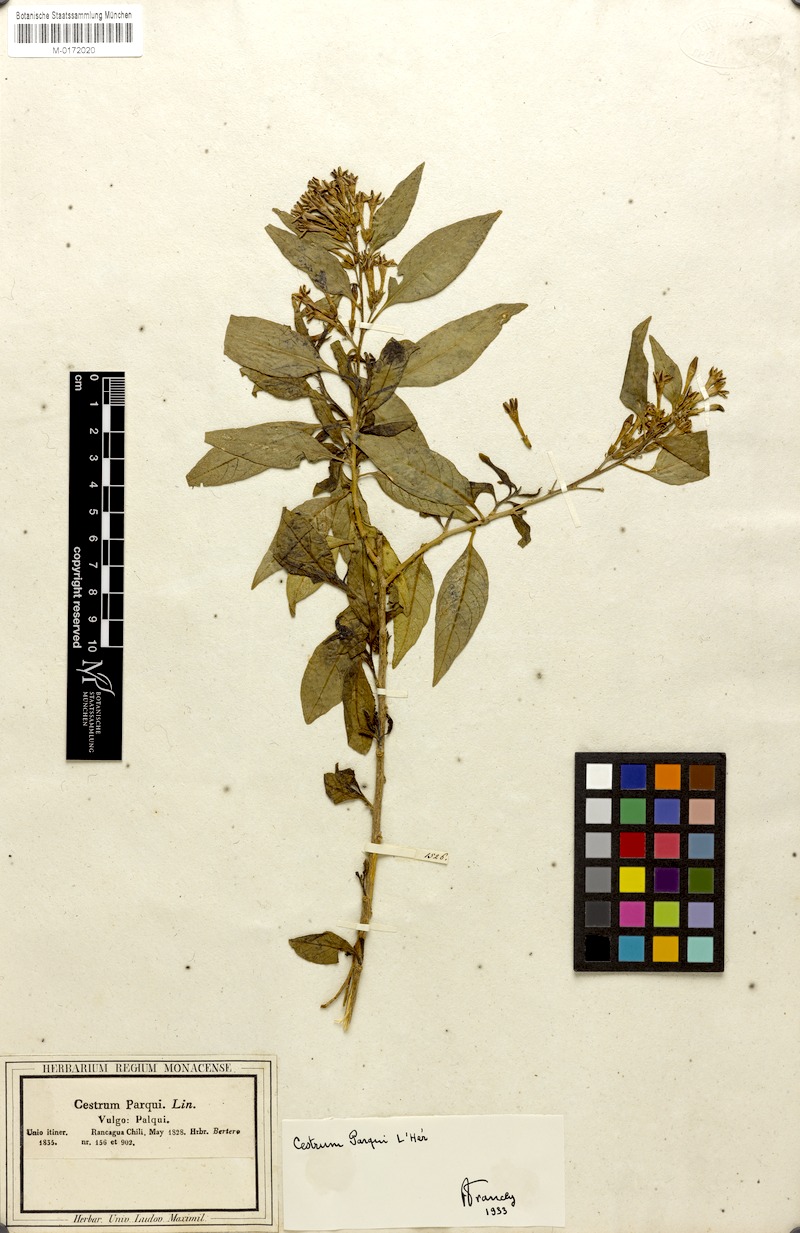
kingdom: Plantae
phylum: Tracheophyta
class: Magnoliopsida
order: Solanales
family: Solanaceae
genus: Cestrum
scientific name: Cestrum thyrsoideum
